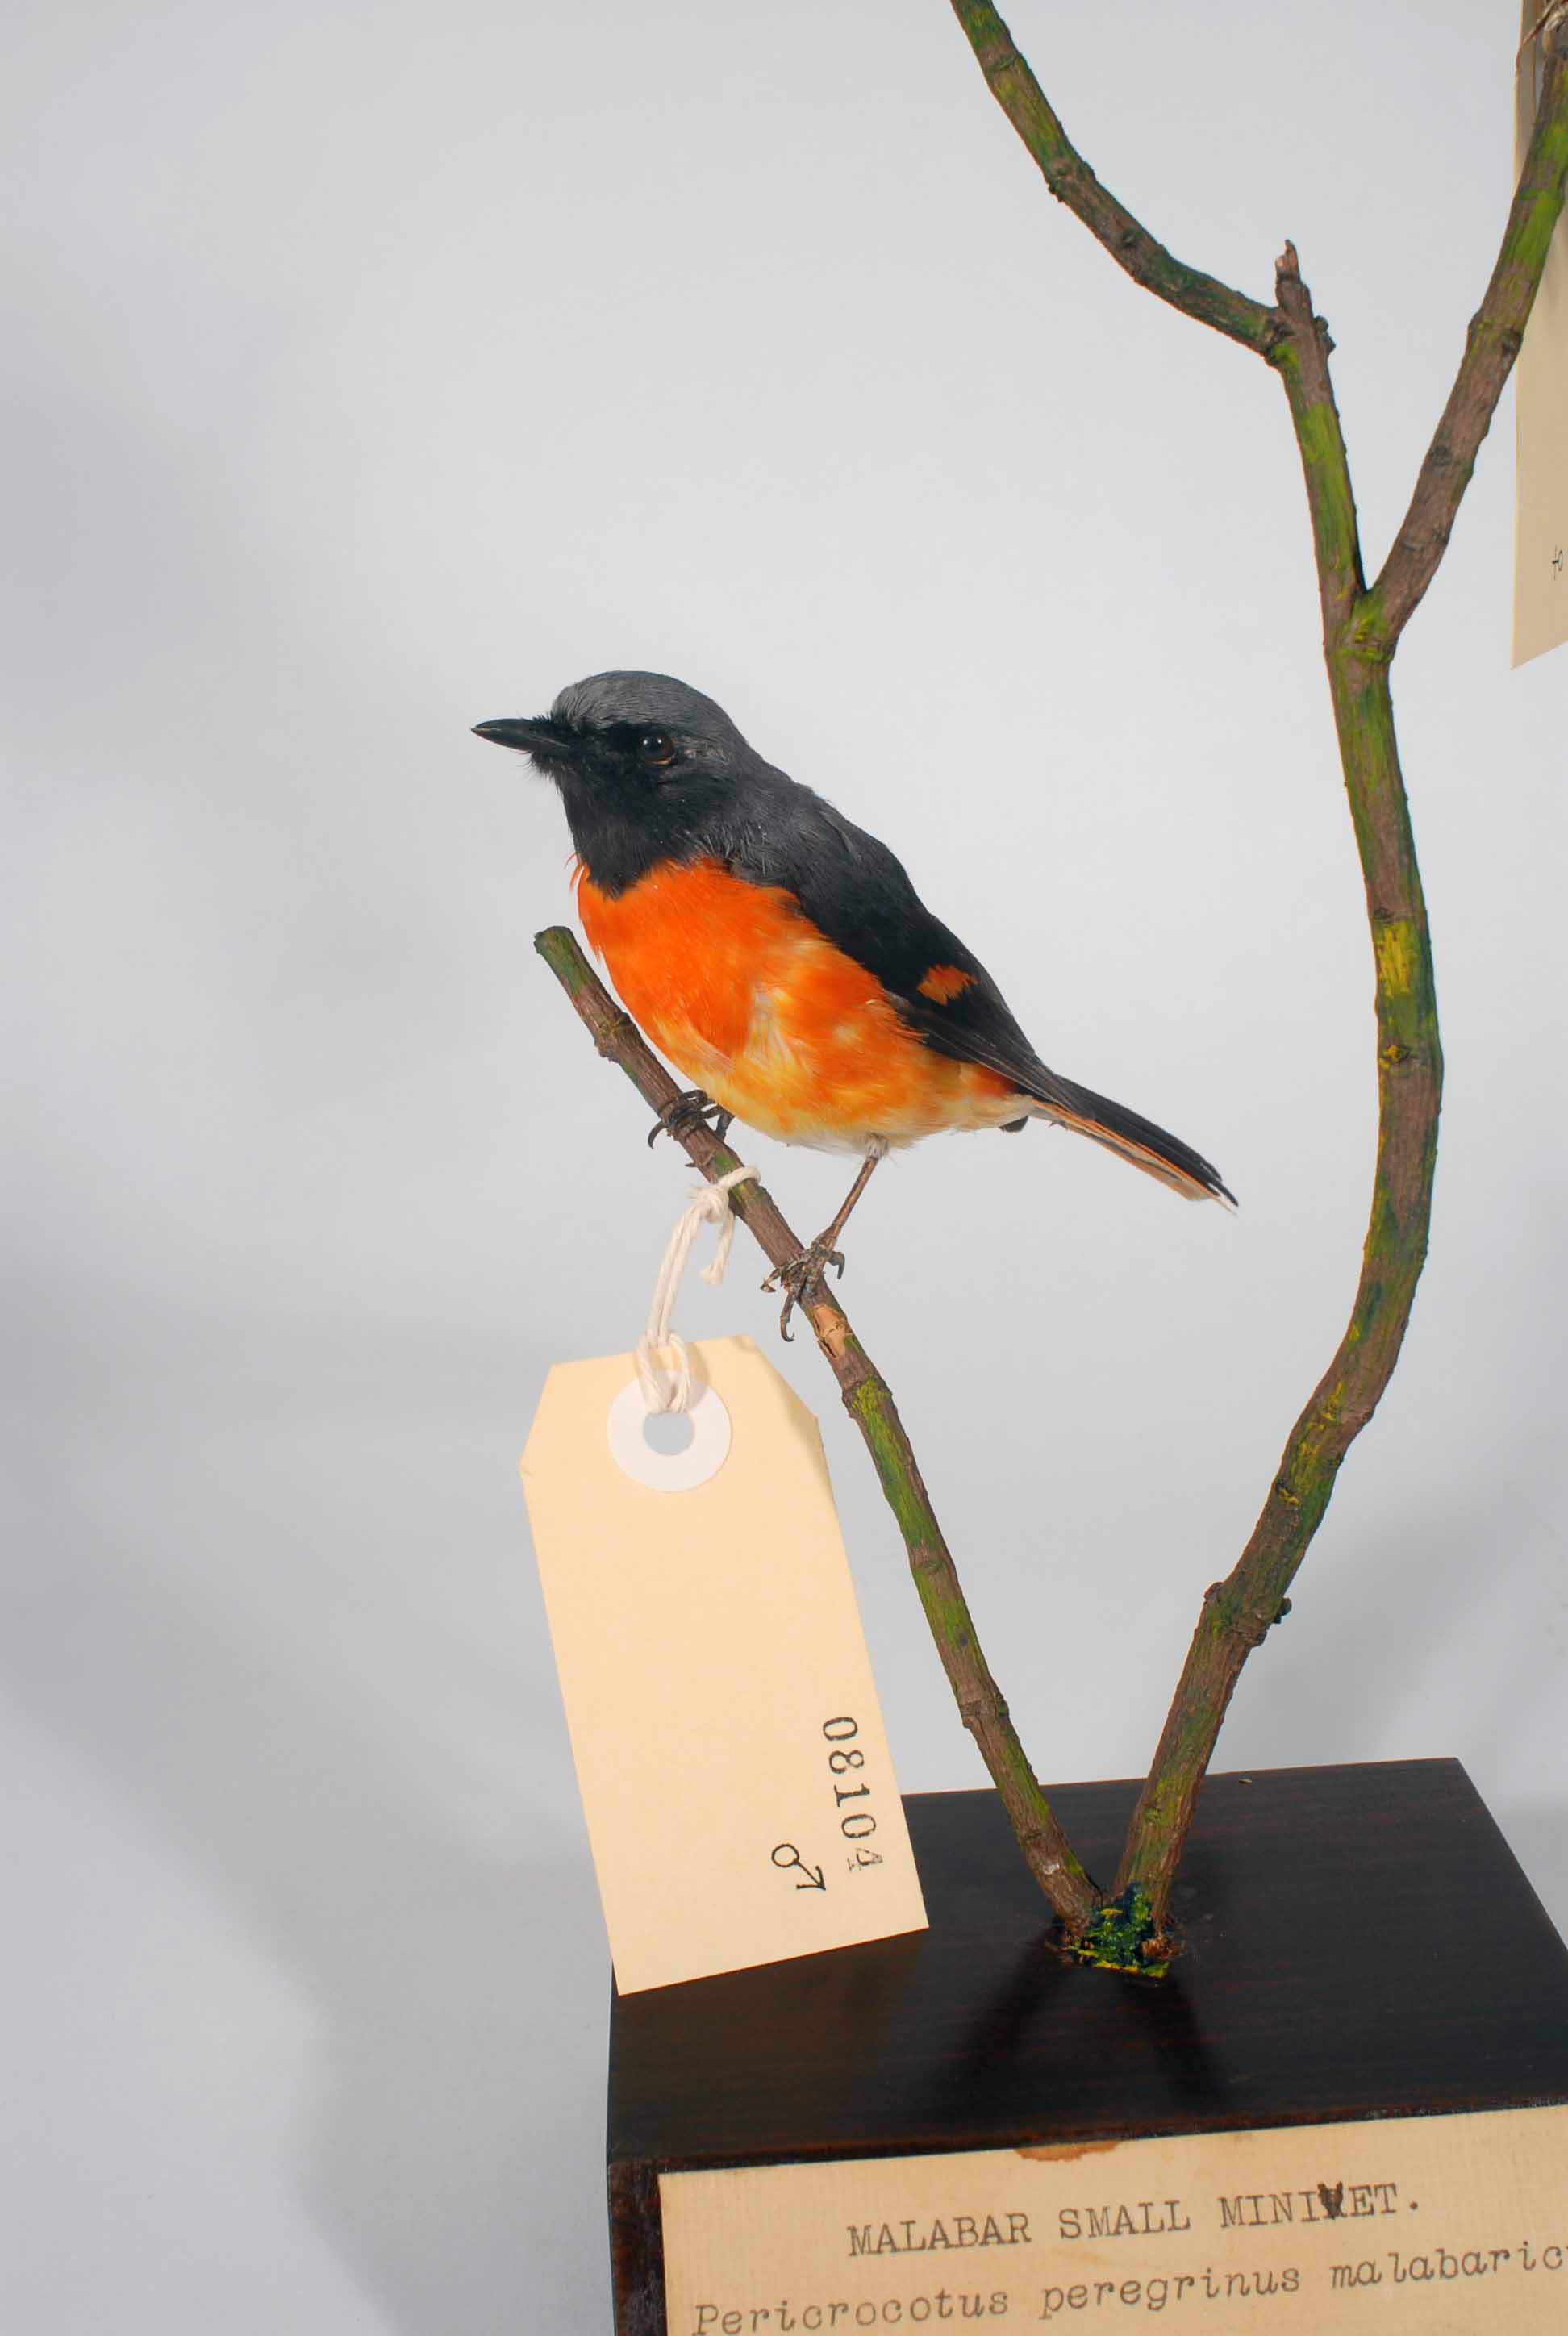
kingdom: Animalia
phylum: Chordata
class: Aves
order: Passeriformes
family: Campephagidae
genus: Pericrocotus
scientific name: Pericrocotus cinnamomeus
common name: Small minivet
